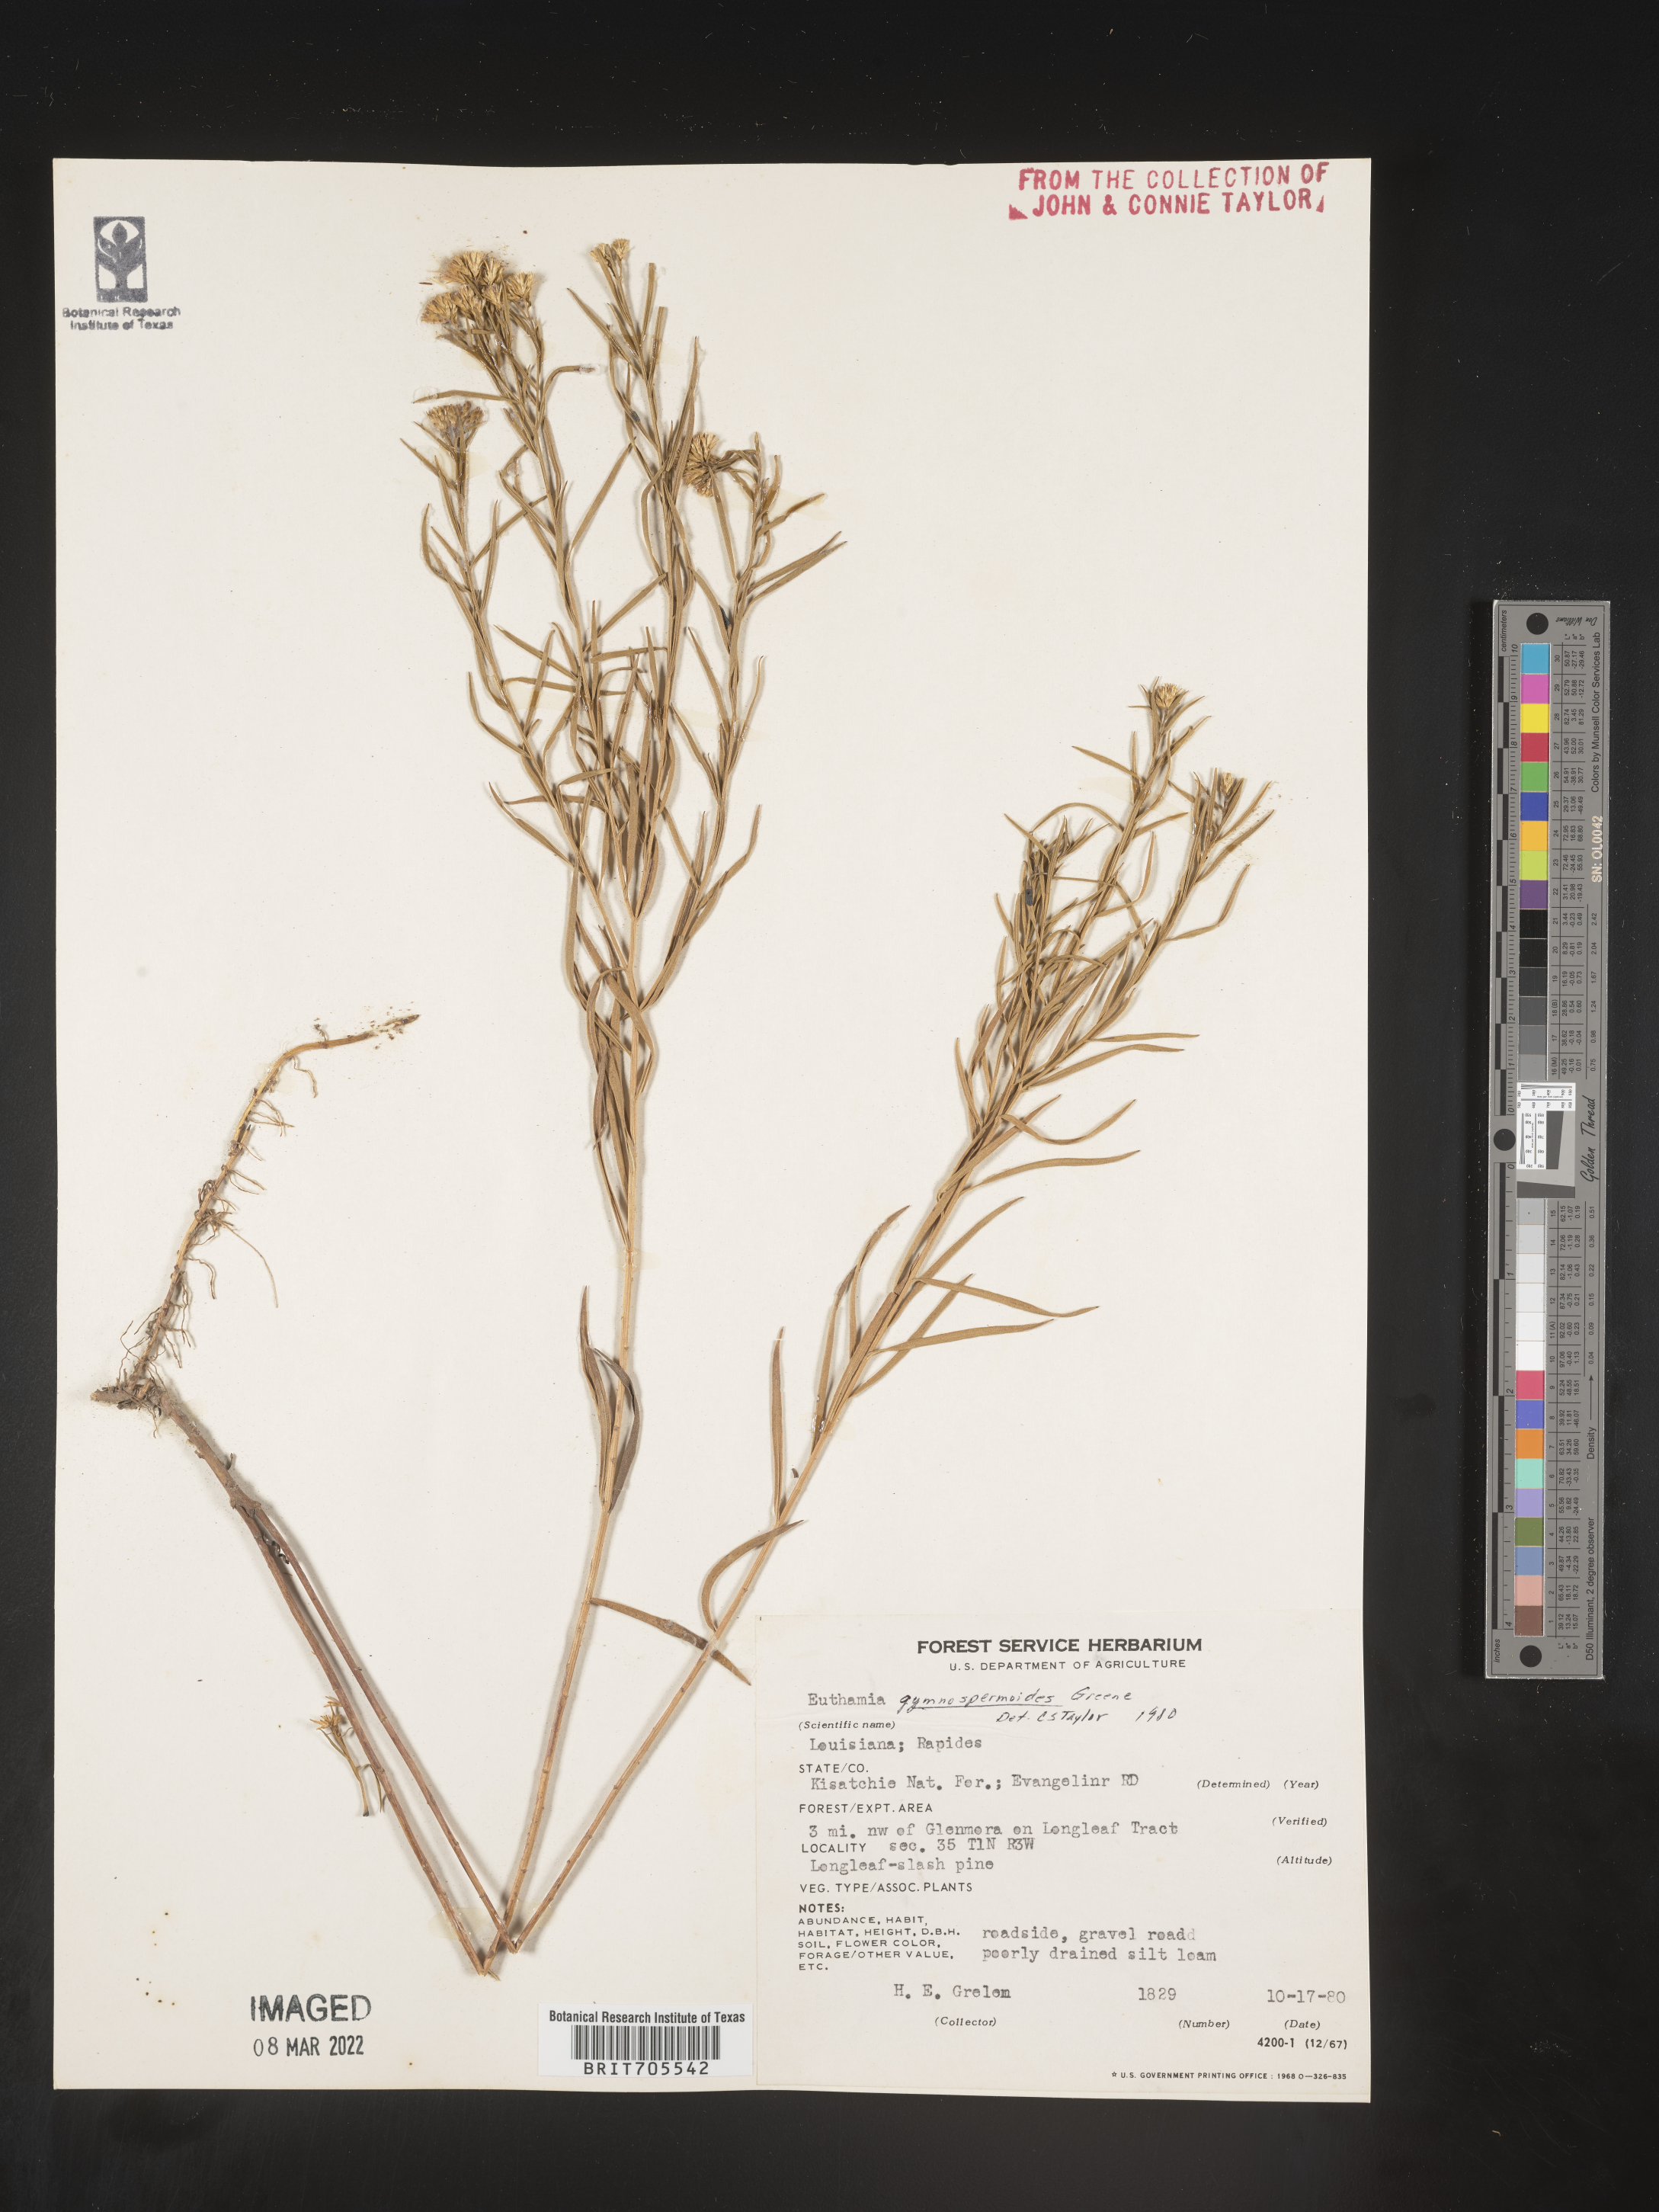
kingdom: Plantae
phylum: Tracheophyta
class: Magnoliopsida
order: Asterales
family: Asteraceae
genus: Euthamia
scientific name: Euthamia pulverulenta
